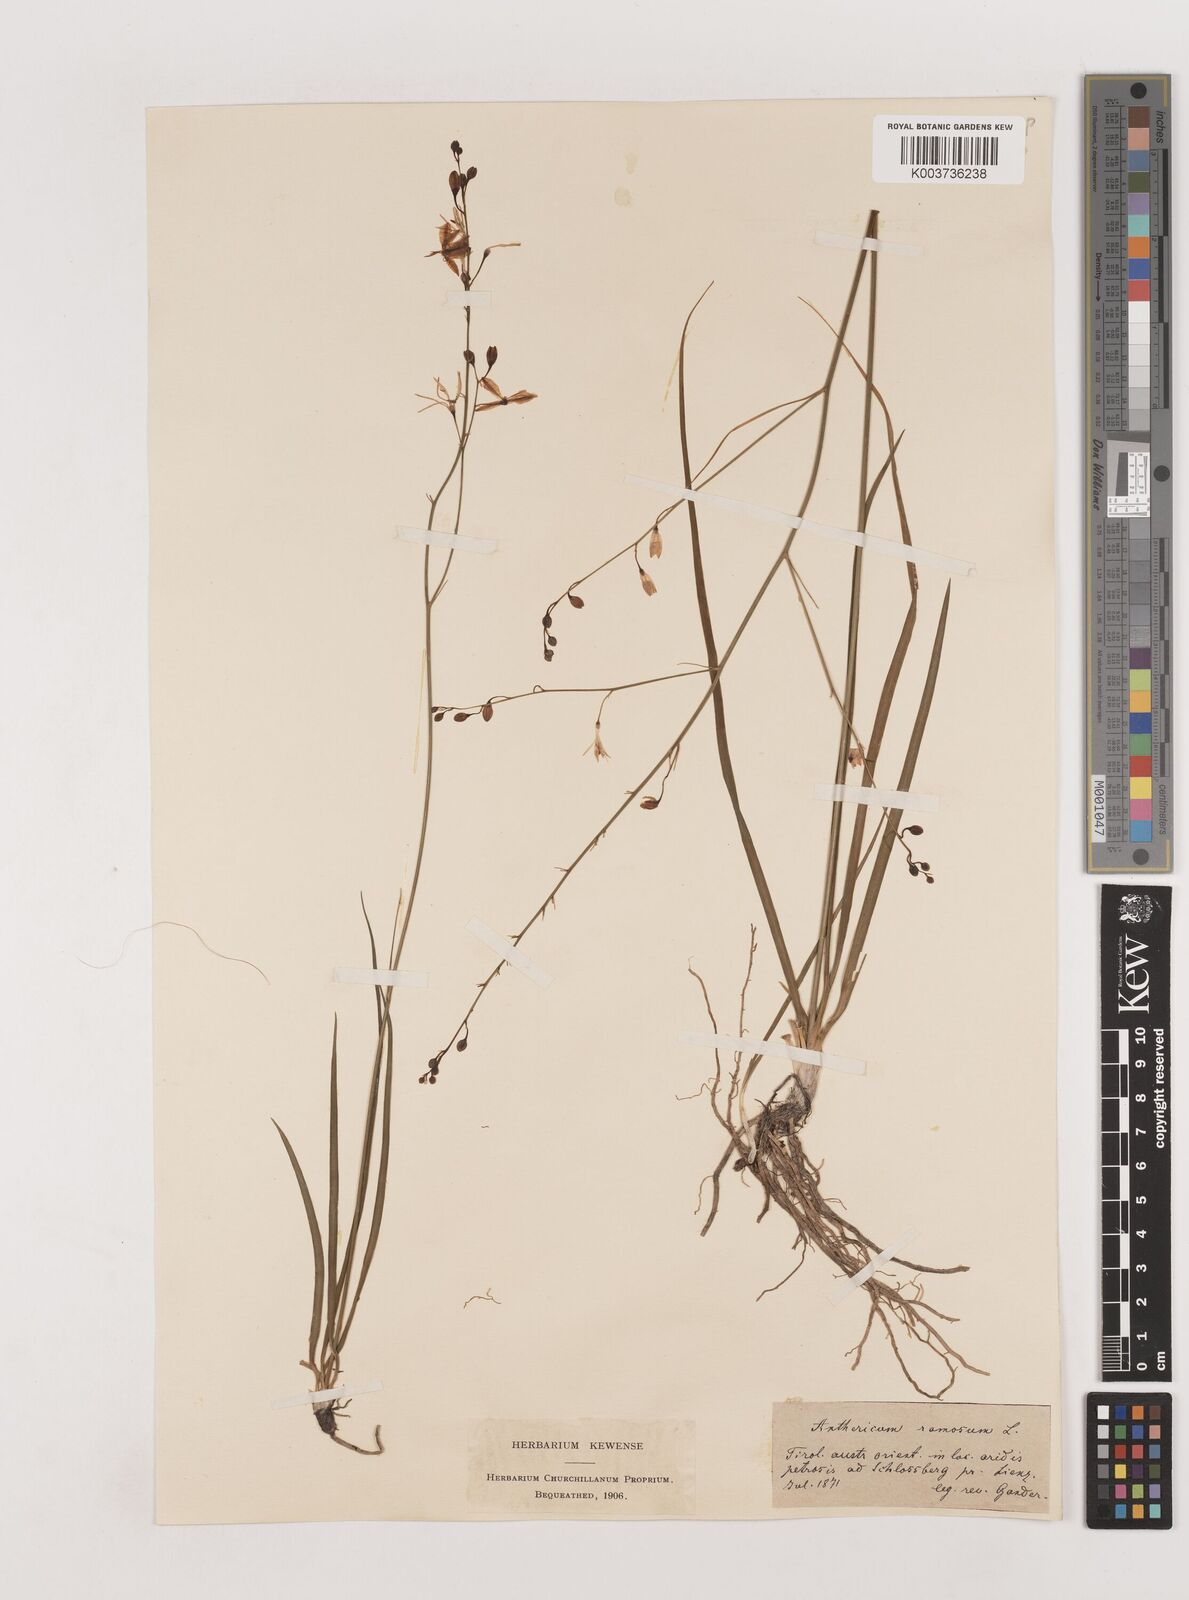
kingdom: Plantae
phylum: Tracheophyta
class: Liliopsida
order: Asparagales
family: Asparagaceae
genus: Anthericum
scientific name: Anthericum
